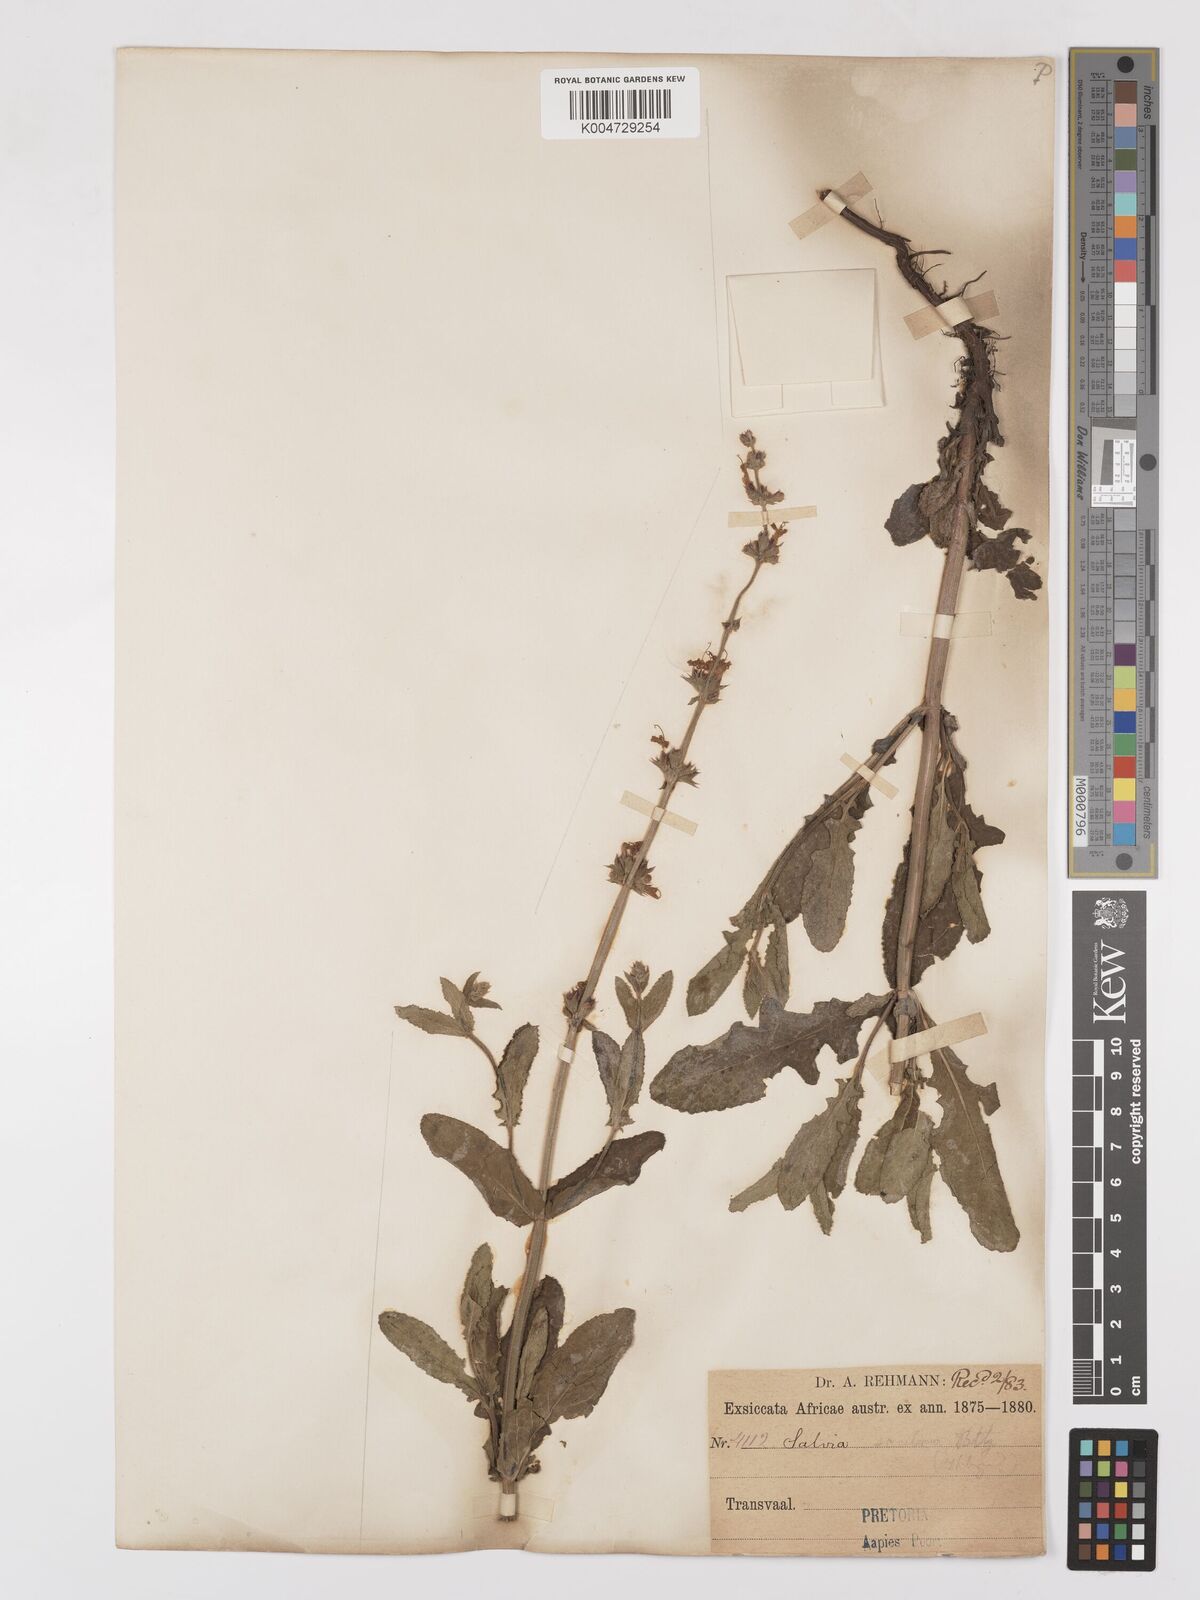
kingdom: Plantae
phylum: Tracheophyta
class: Magnoliopsida
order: Lamiales
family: Lamiaceae
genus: Salvia
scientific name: Salvia repens
